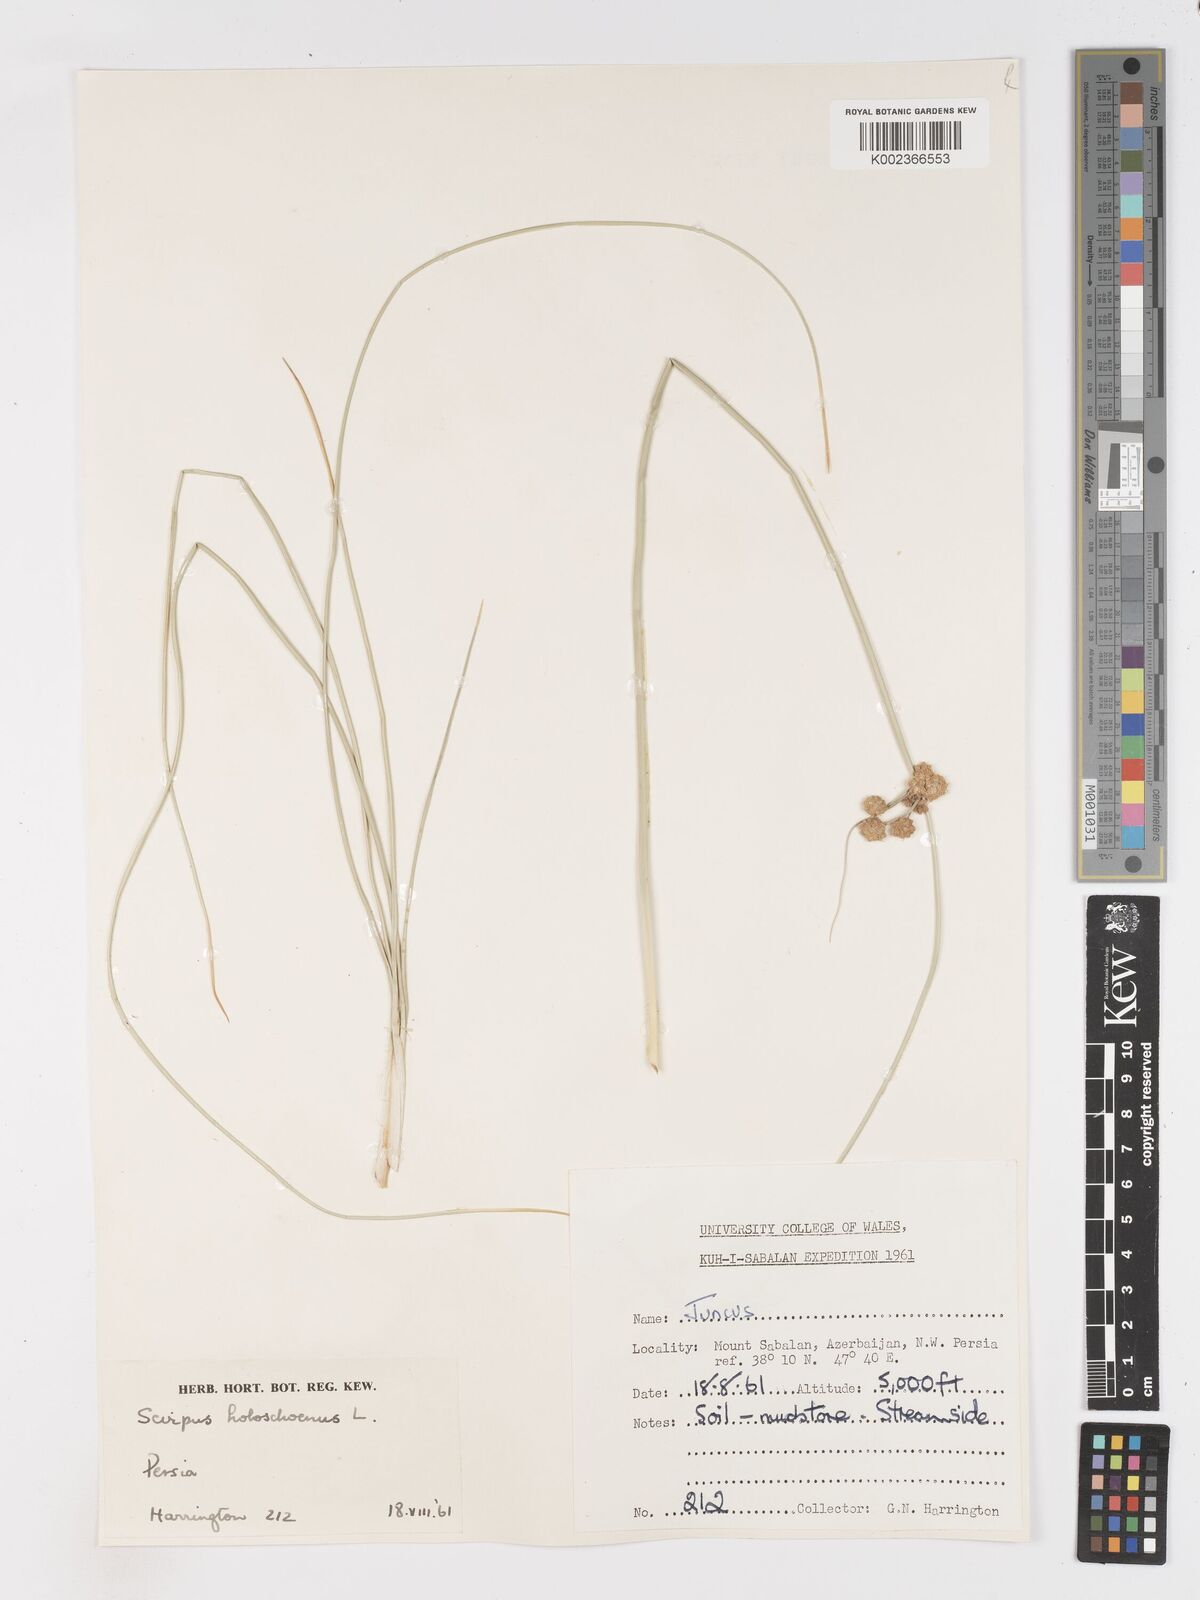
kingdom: Plantae
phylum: Tracheophyta
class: Liliopsida
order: Poales
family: Cyperaceae
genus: Scirpoides
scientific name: Scirpoides holoschoenus
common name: Round-headed club-rush
